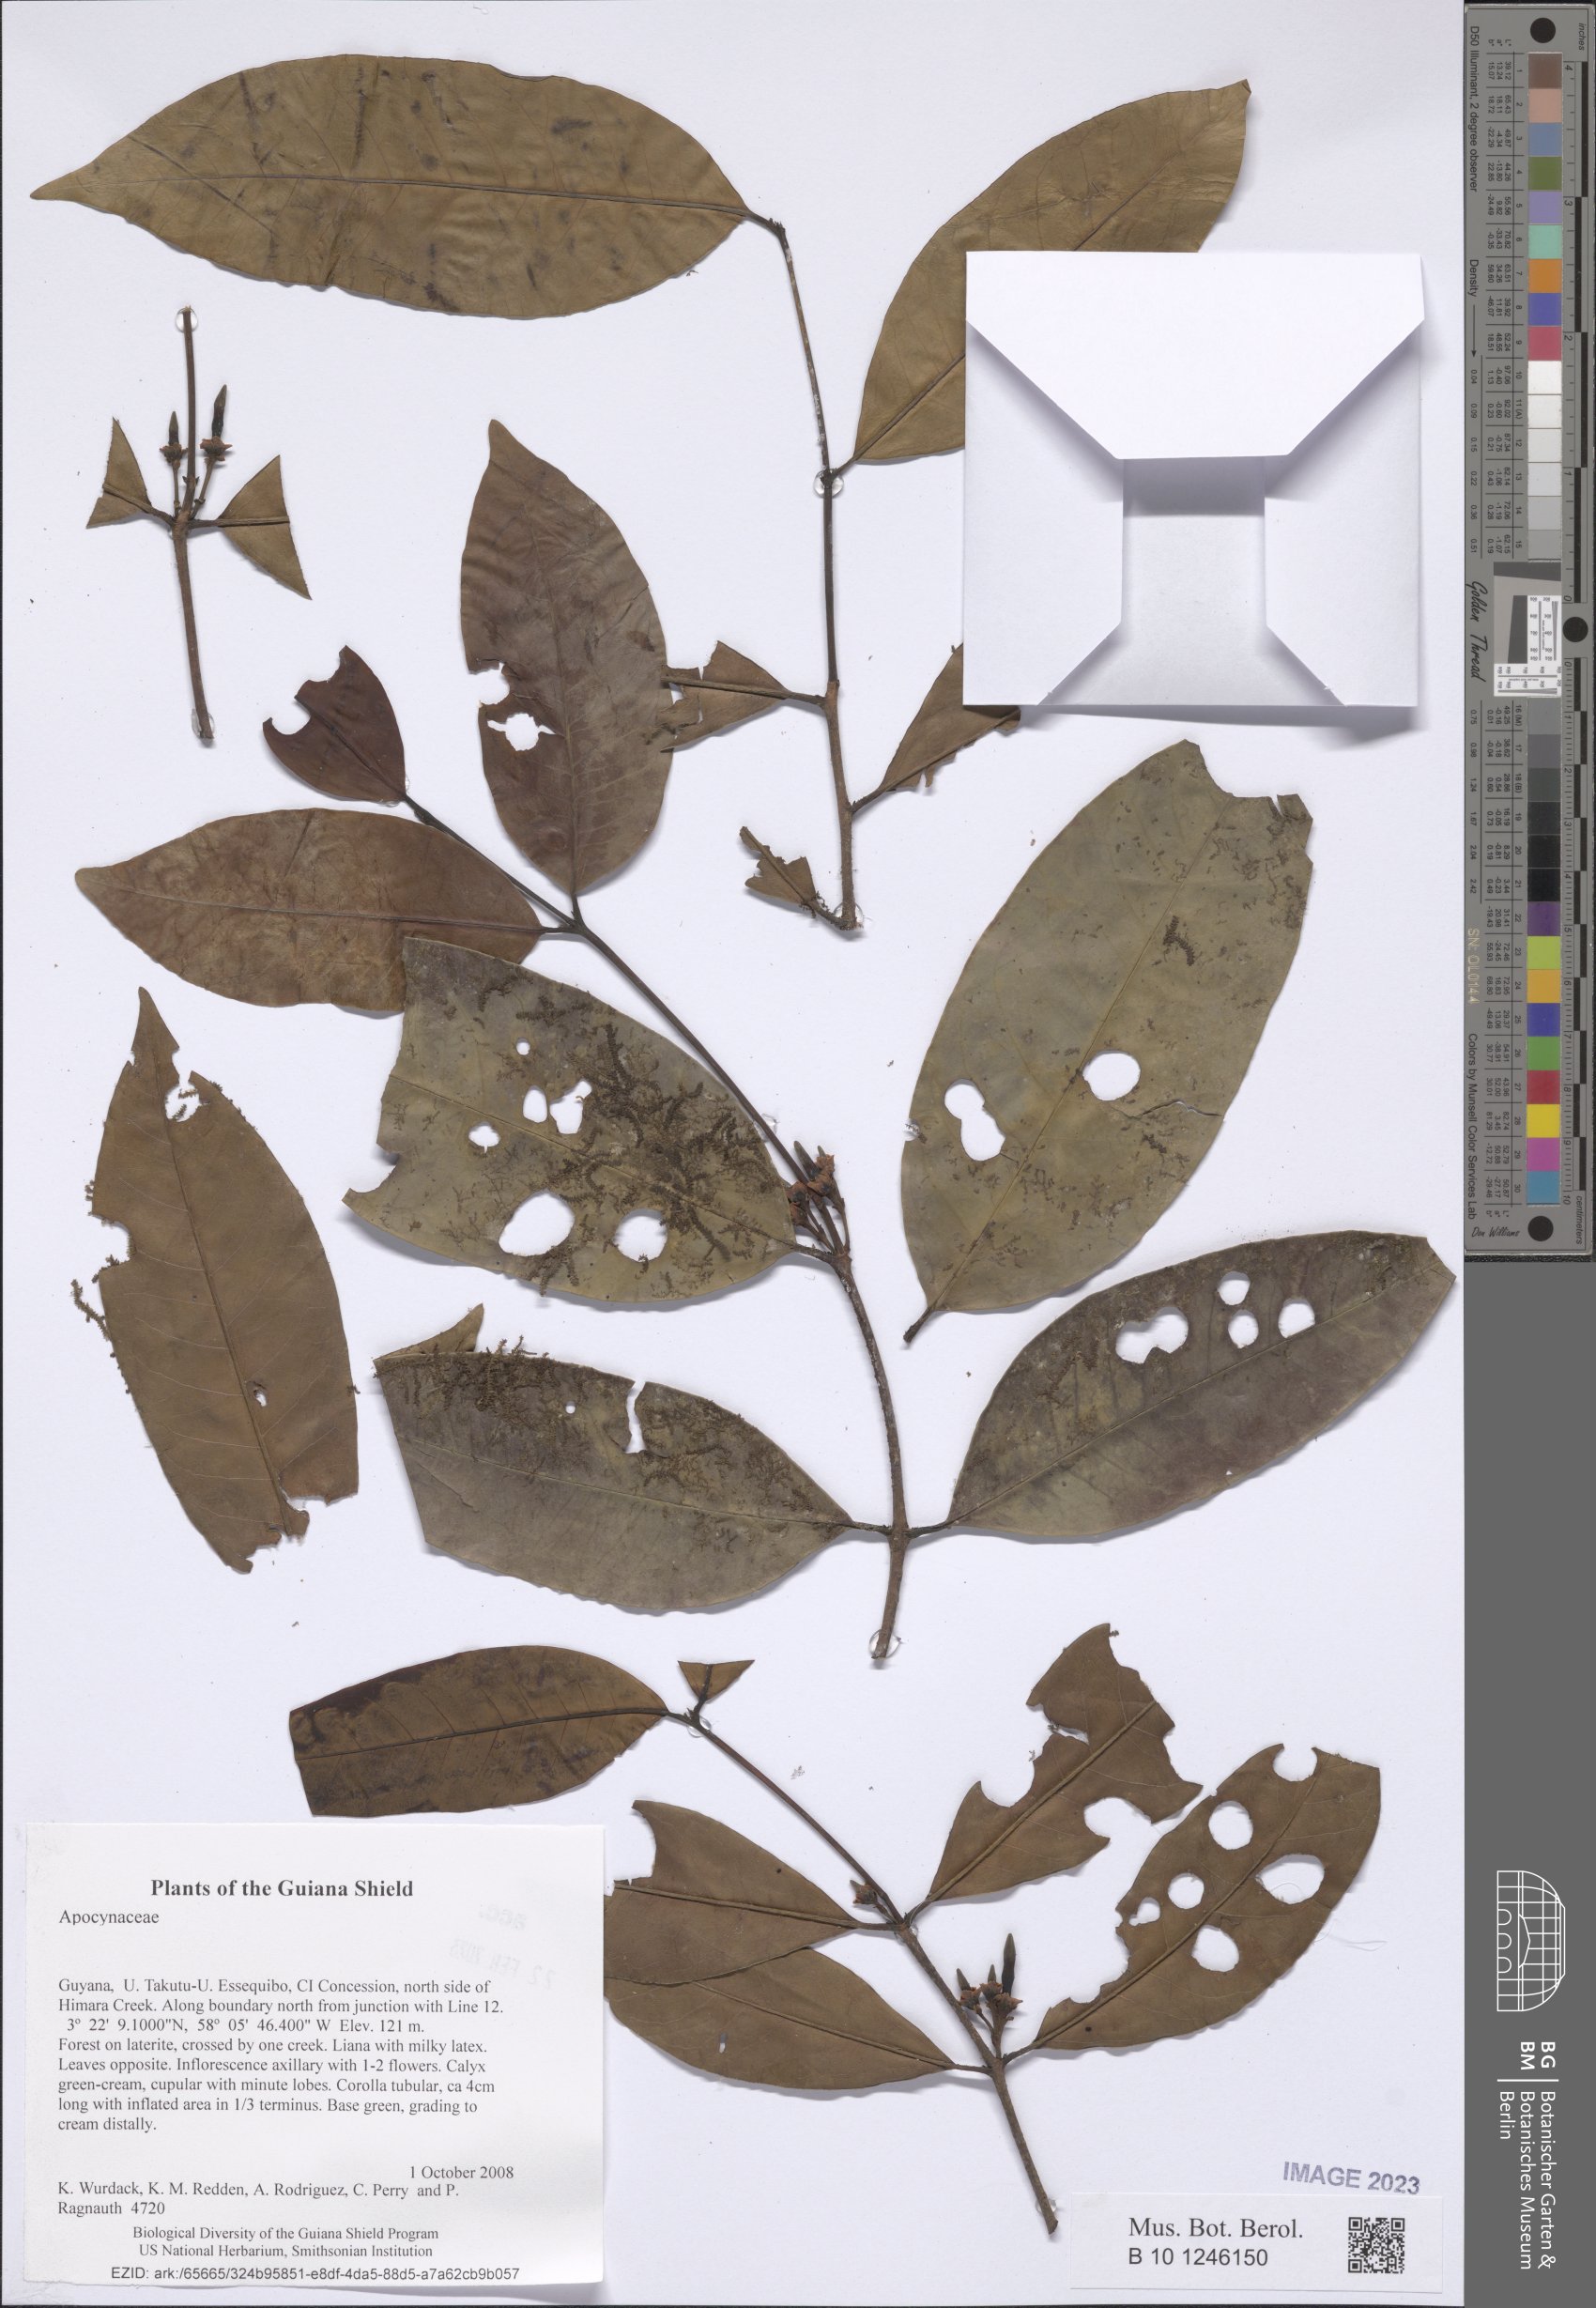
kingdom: Plantae
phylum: Tracheophyta
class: Magnoliopsida
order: Gentianales
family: Apocynaceae
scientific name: Apocynaceae
